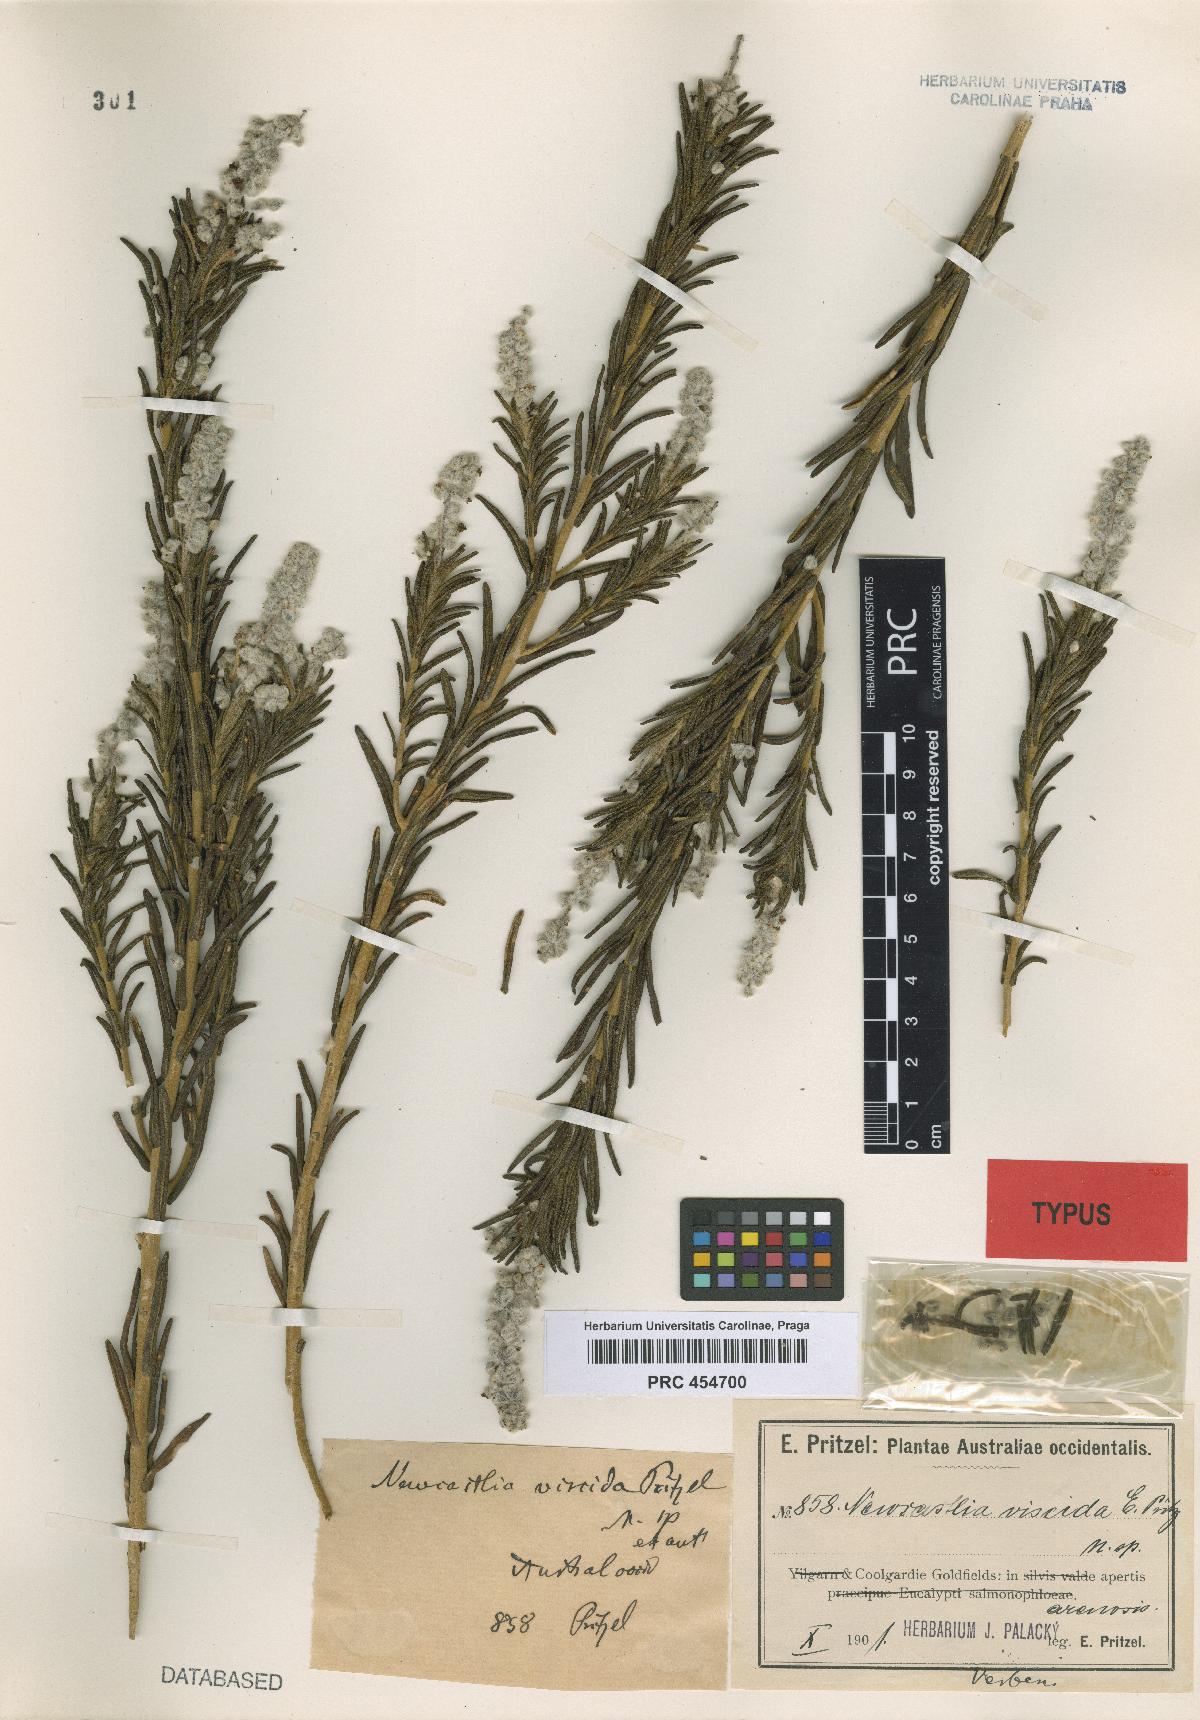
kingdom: Plantae
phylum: Tracheophyta
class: Magnoliopsida
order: Lamiales
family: Lamiaceae
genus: Apatelantha
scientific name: Apatelantha viscida
